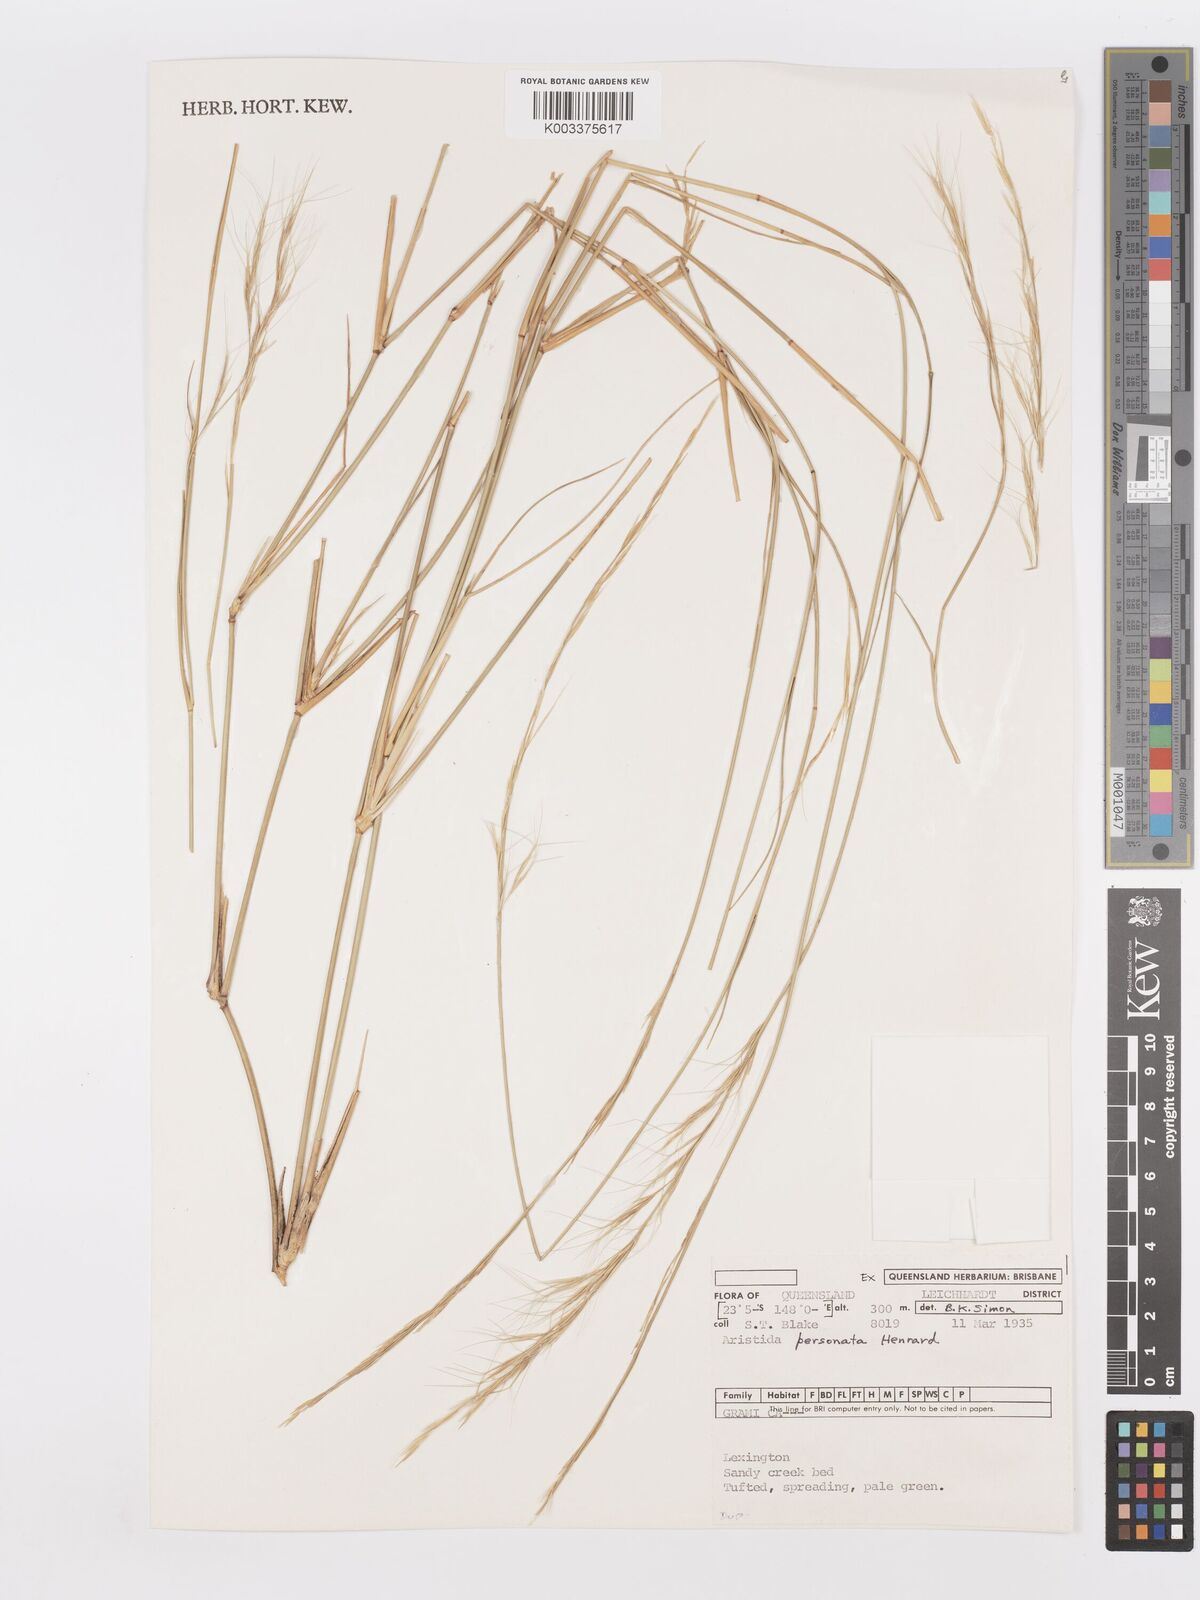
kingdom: Plantae
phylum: Tracheophyta
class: Liliopsida
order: Poales
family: Poaceae
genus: Aristida
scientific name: Aristida personata
